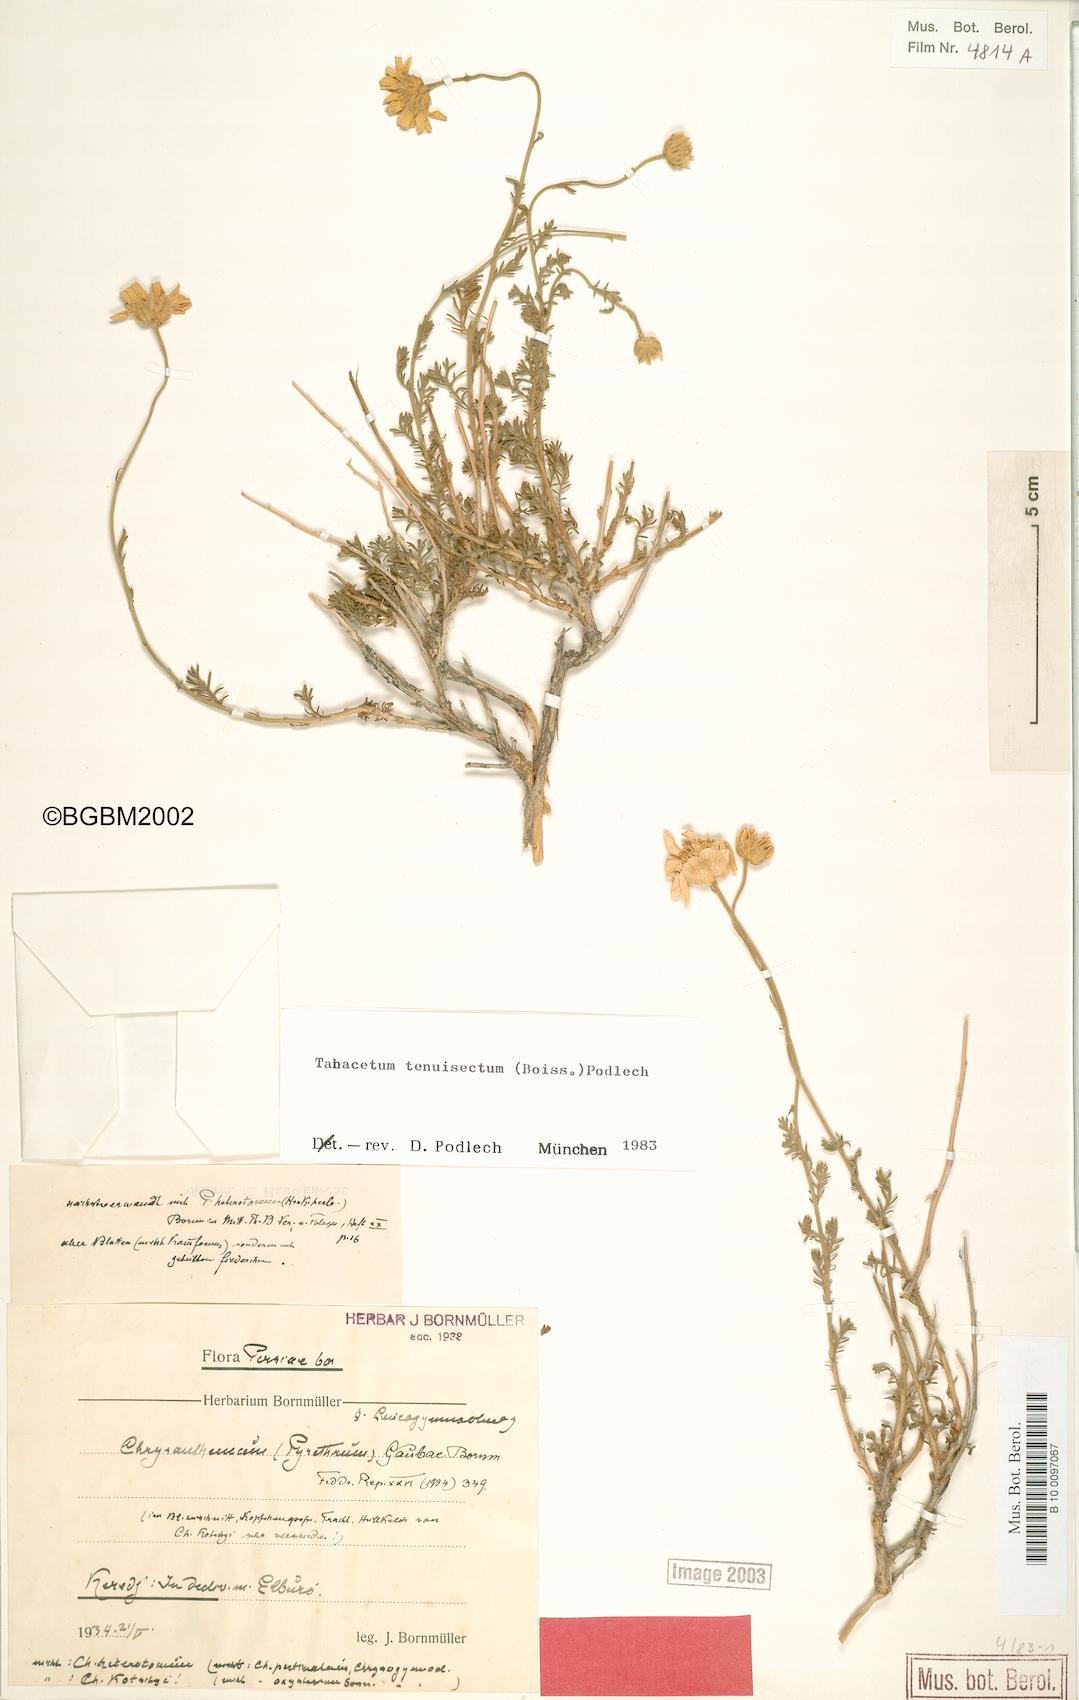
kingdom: Plantae
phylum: Tracheophyta
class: Magnoliopsida
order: Asterales
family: Asteraceae
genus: Tanacetum
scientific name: Tanacetum tenuisectum
